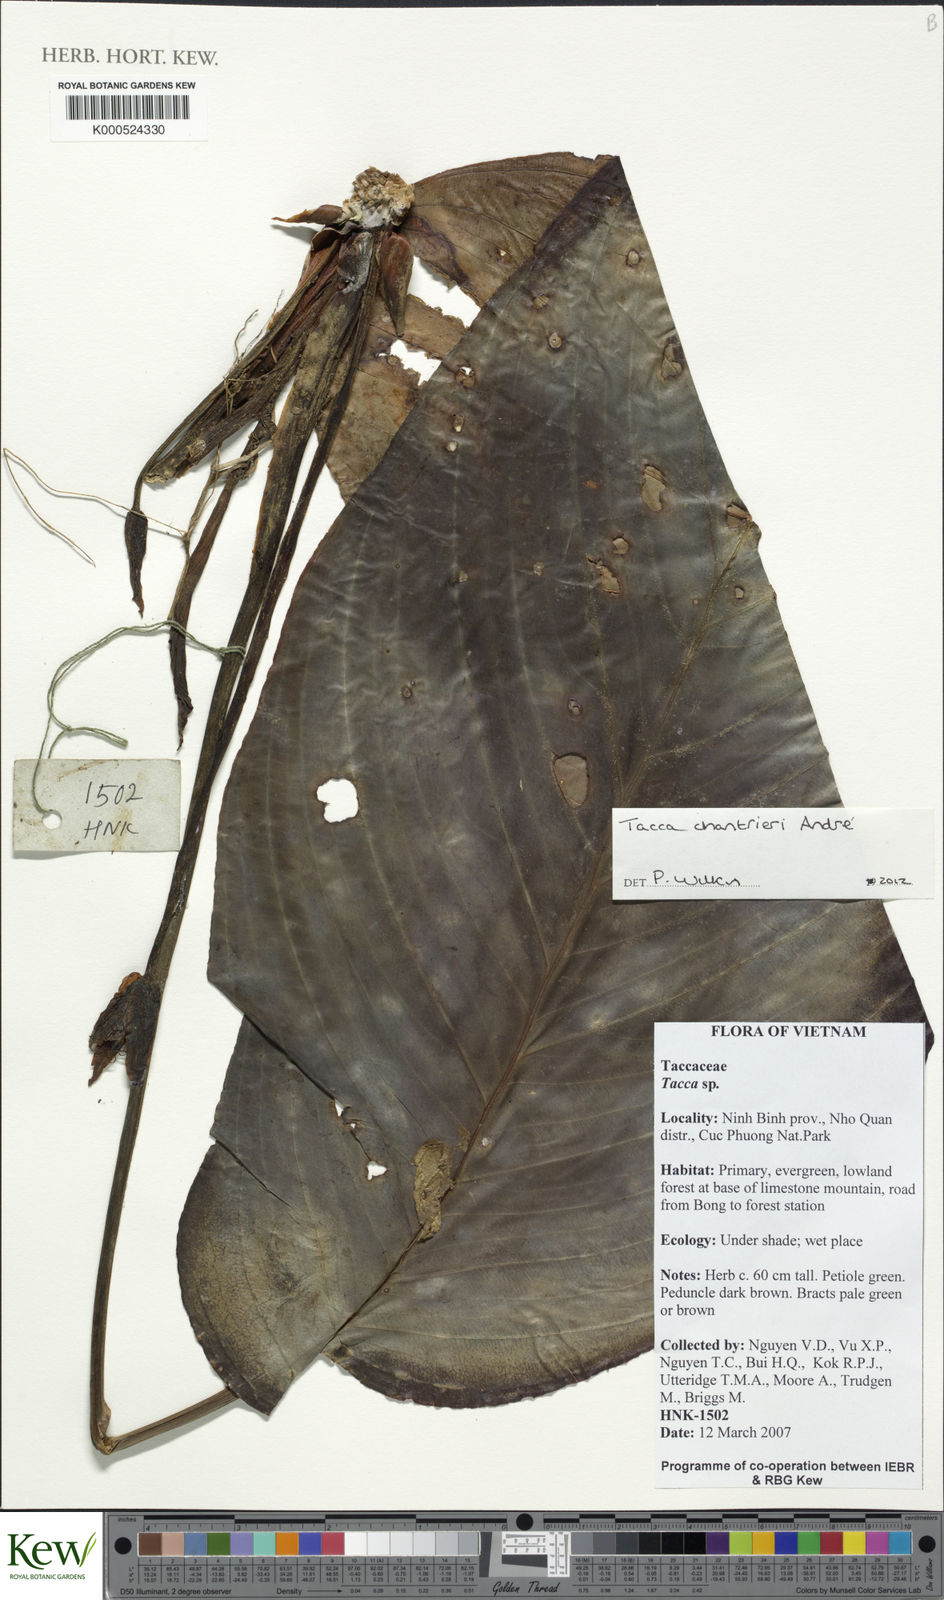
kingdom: Plantae
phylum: Tracheophyta
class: Liliopsida
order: Dioscoreales
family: Dioscoreaceae
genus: Tacca
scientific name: Tacca chantrieri
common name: Cat's-whiskers
